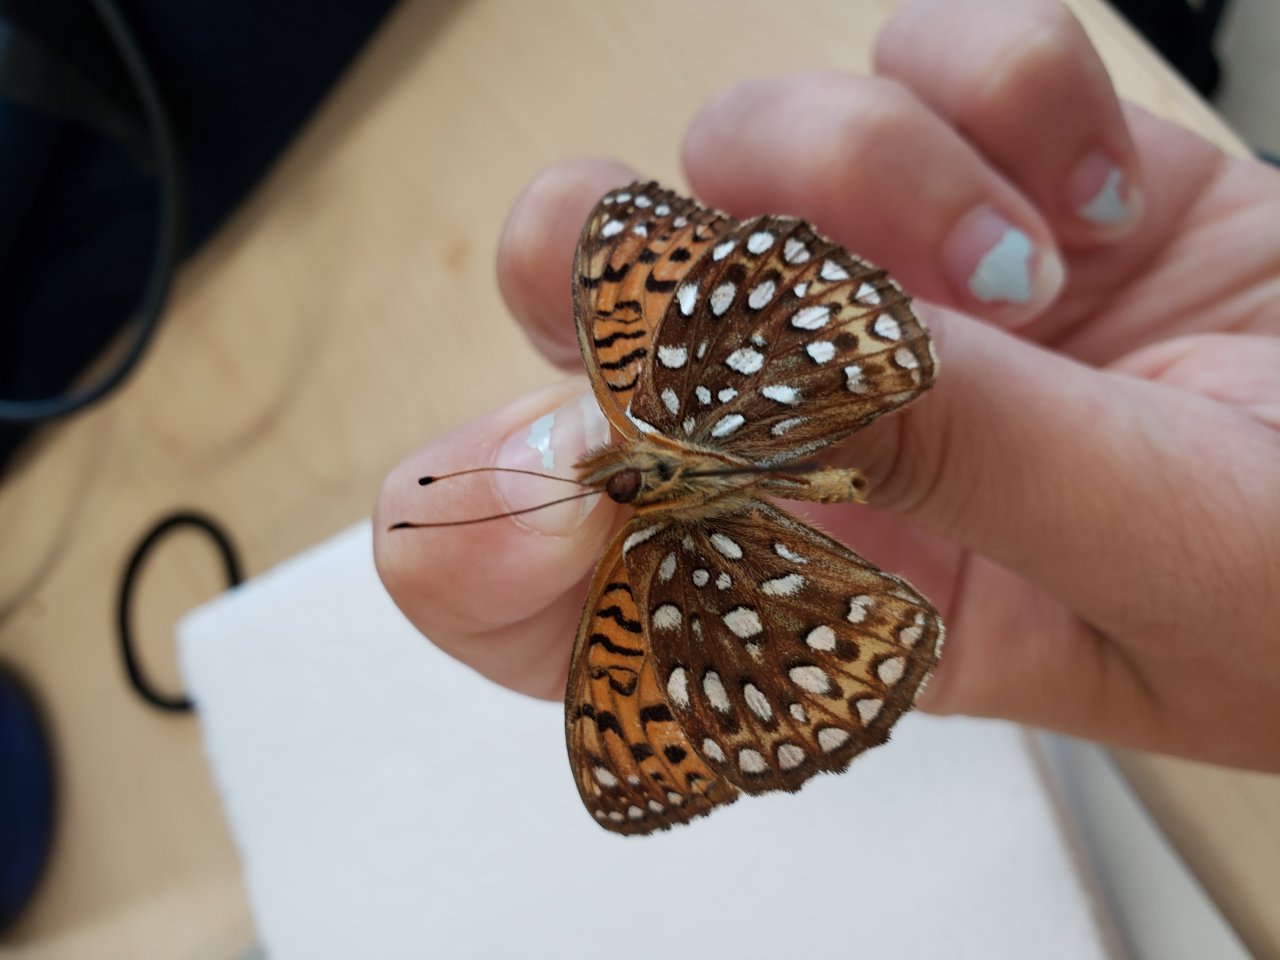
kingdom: Animalia
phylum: Arthropoda
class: Insecta
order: Lepidoptera
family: Nymphalidae
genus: Speyeria
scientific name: Speyeria atlantis
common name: Atlantis Fritillary
